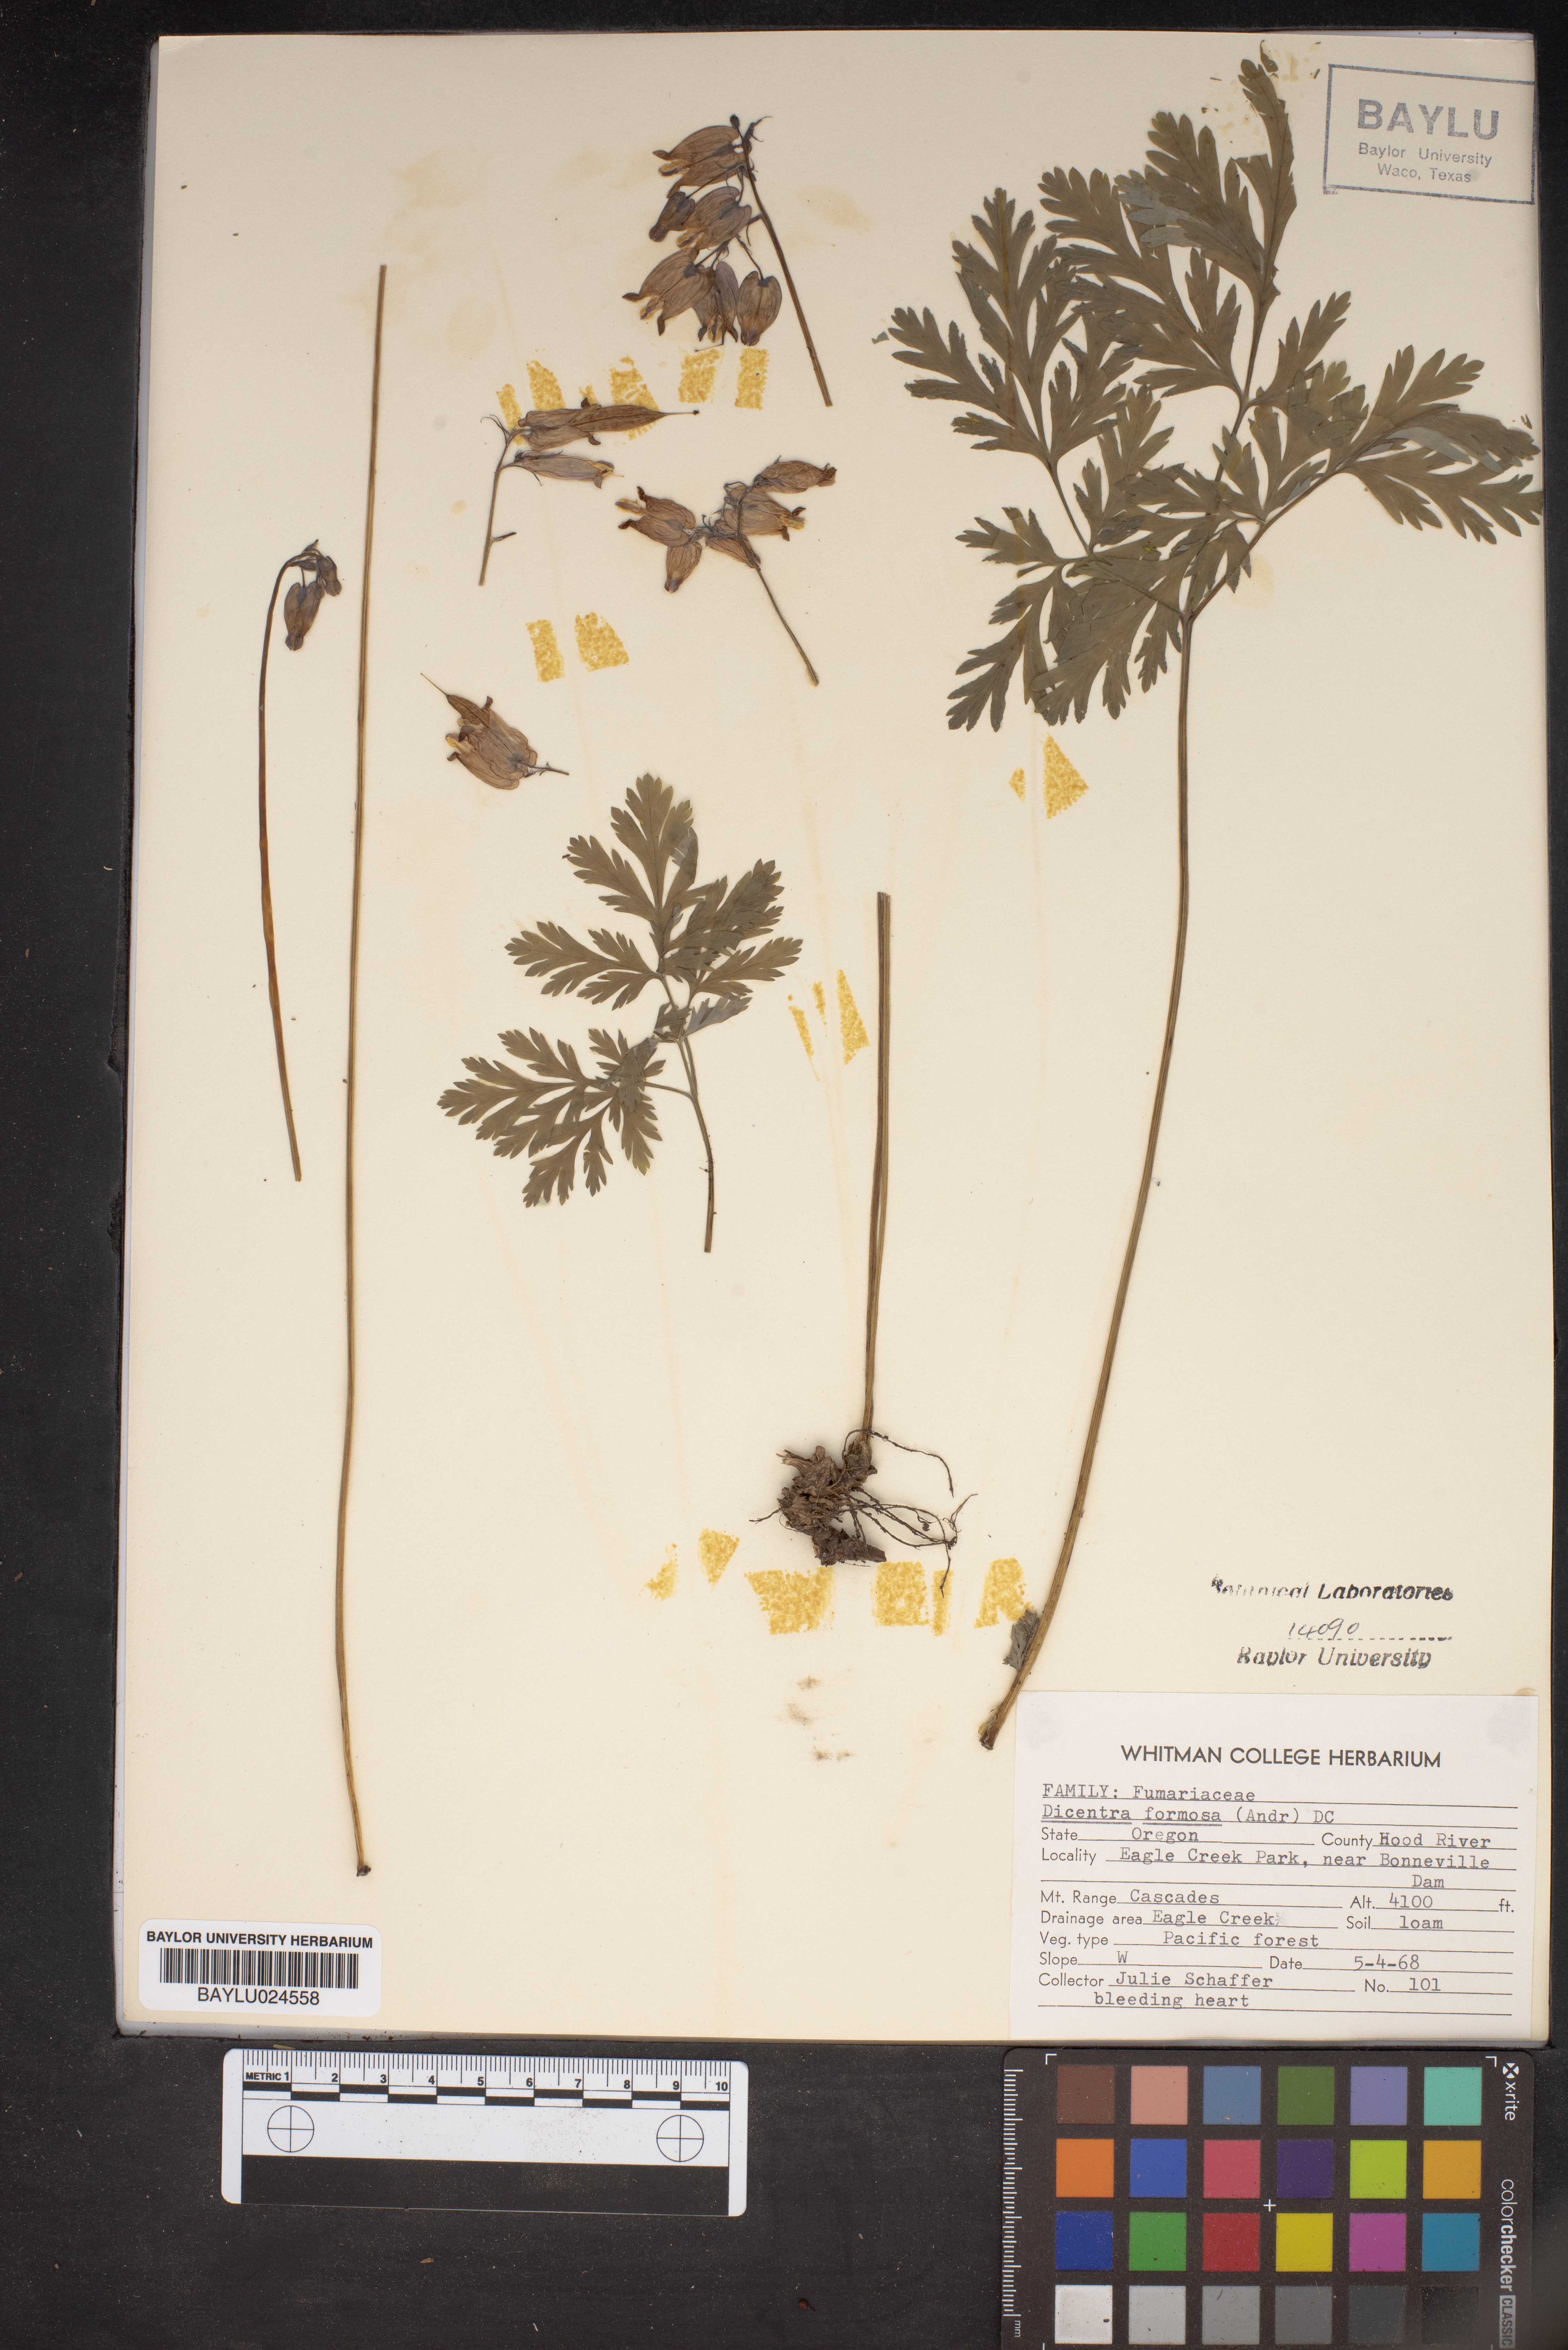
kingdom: Plantae
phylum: Tracheophyta
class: Magnoliopsida
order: Ranunculales
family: Papaveraceae
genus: Dicentra
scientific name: Dicentra formosa
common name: Bleeding-heart
